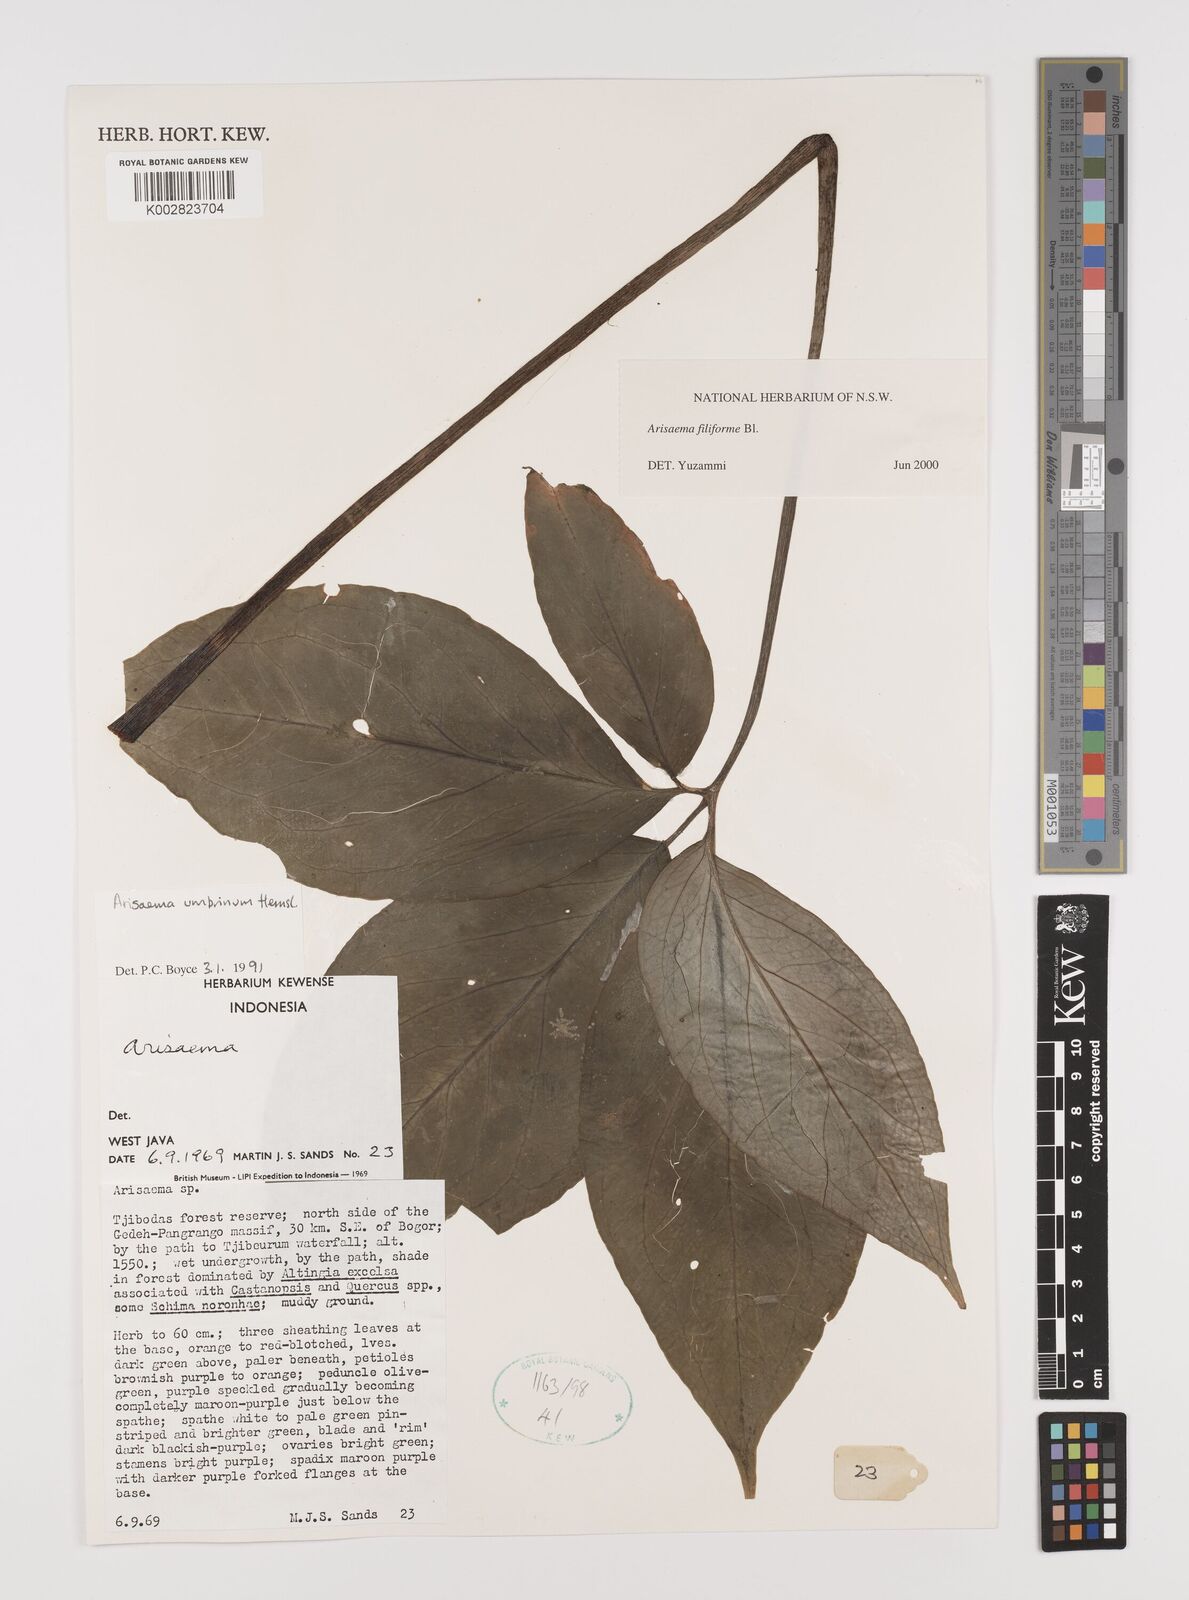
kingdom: Plantae
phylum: Tracheophyta
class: Liliopsida
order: Alismatales
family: Araceae
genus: Arisaema
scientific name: Arisaema filiforme
